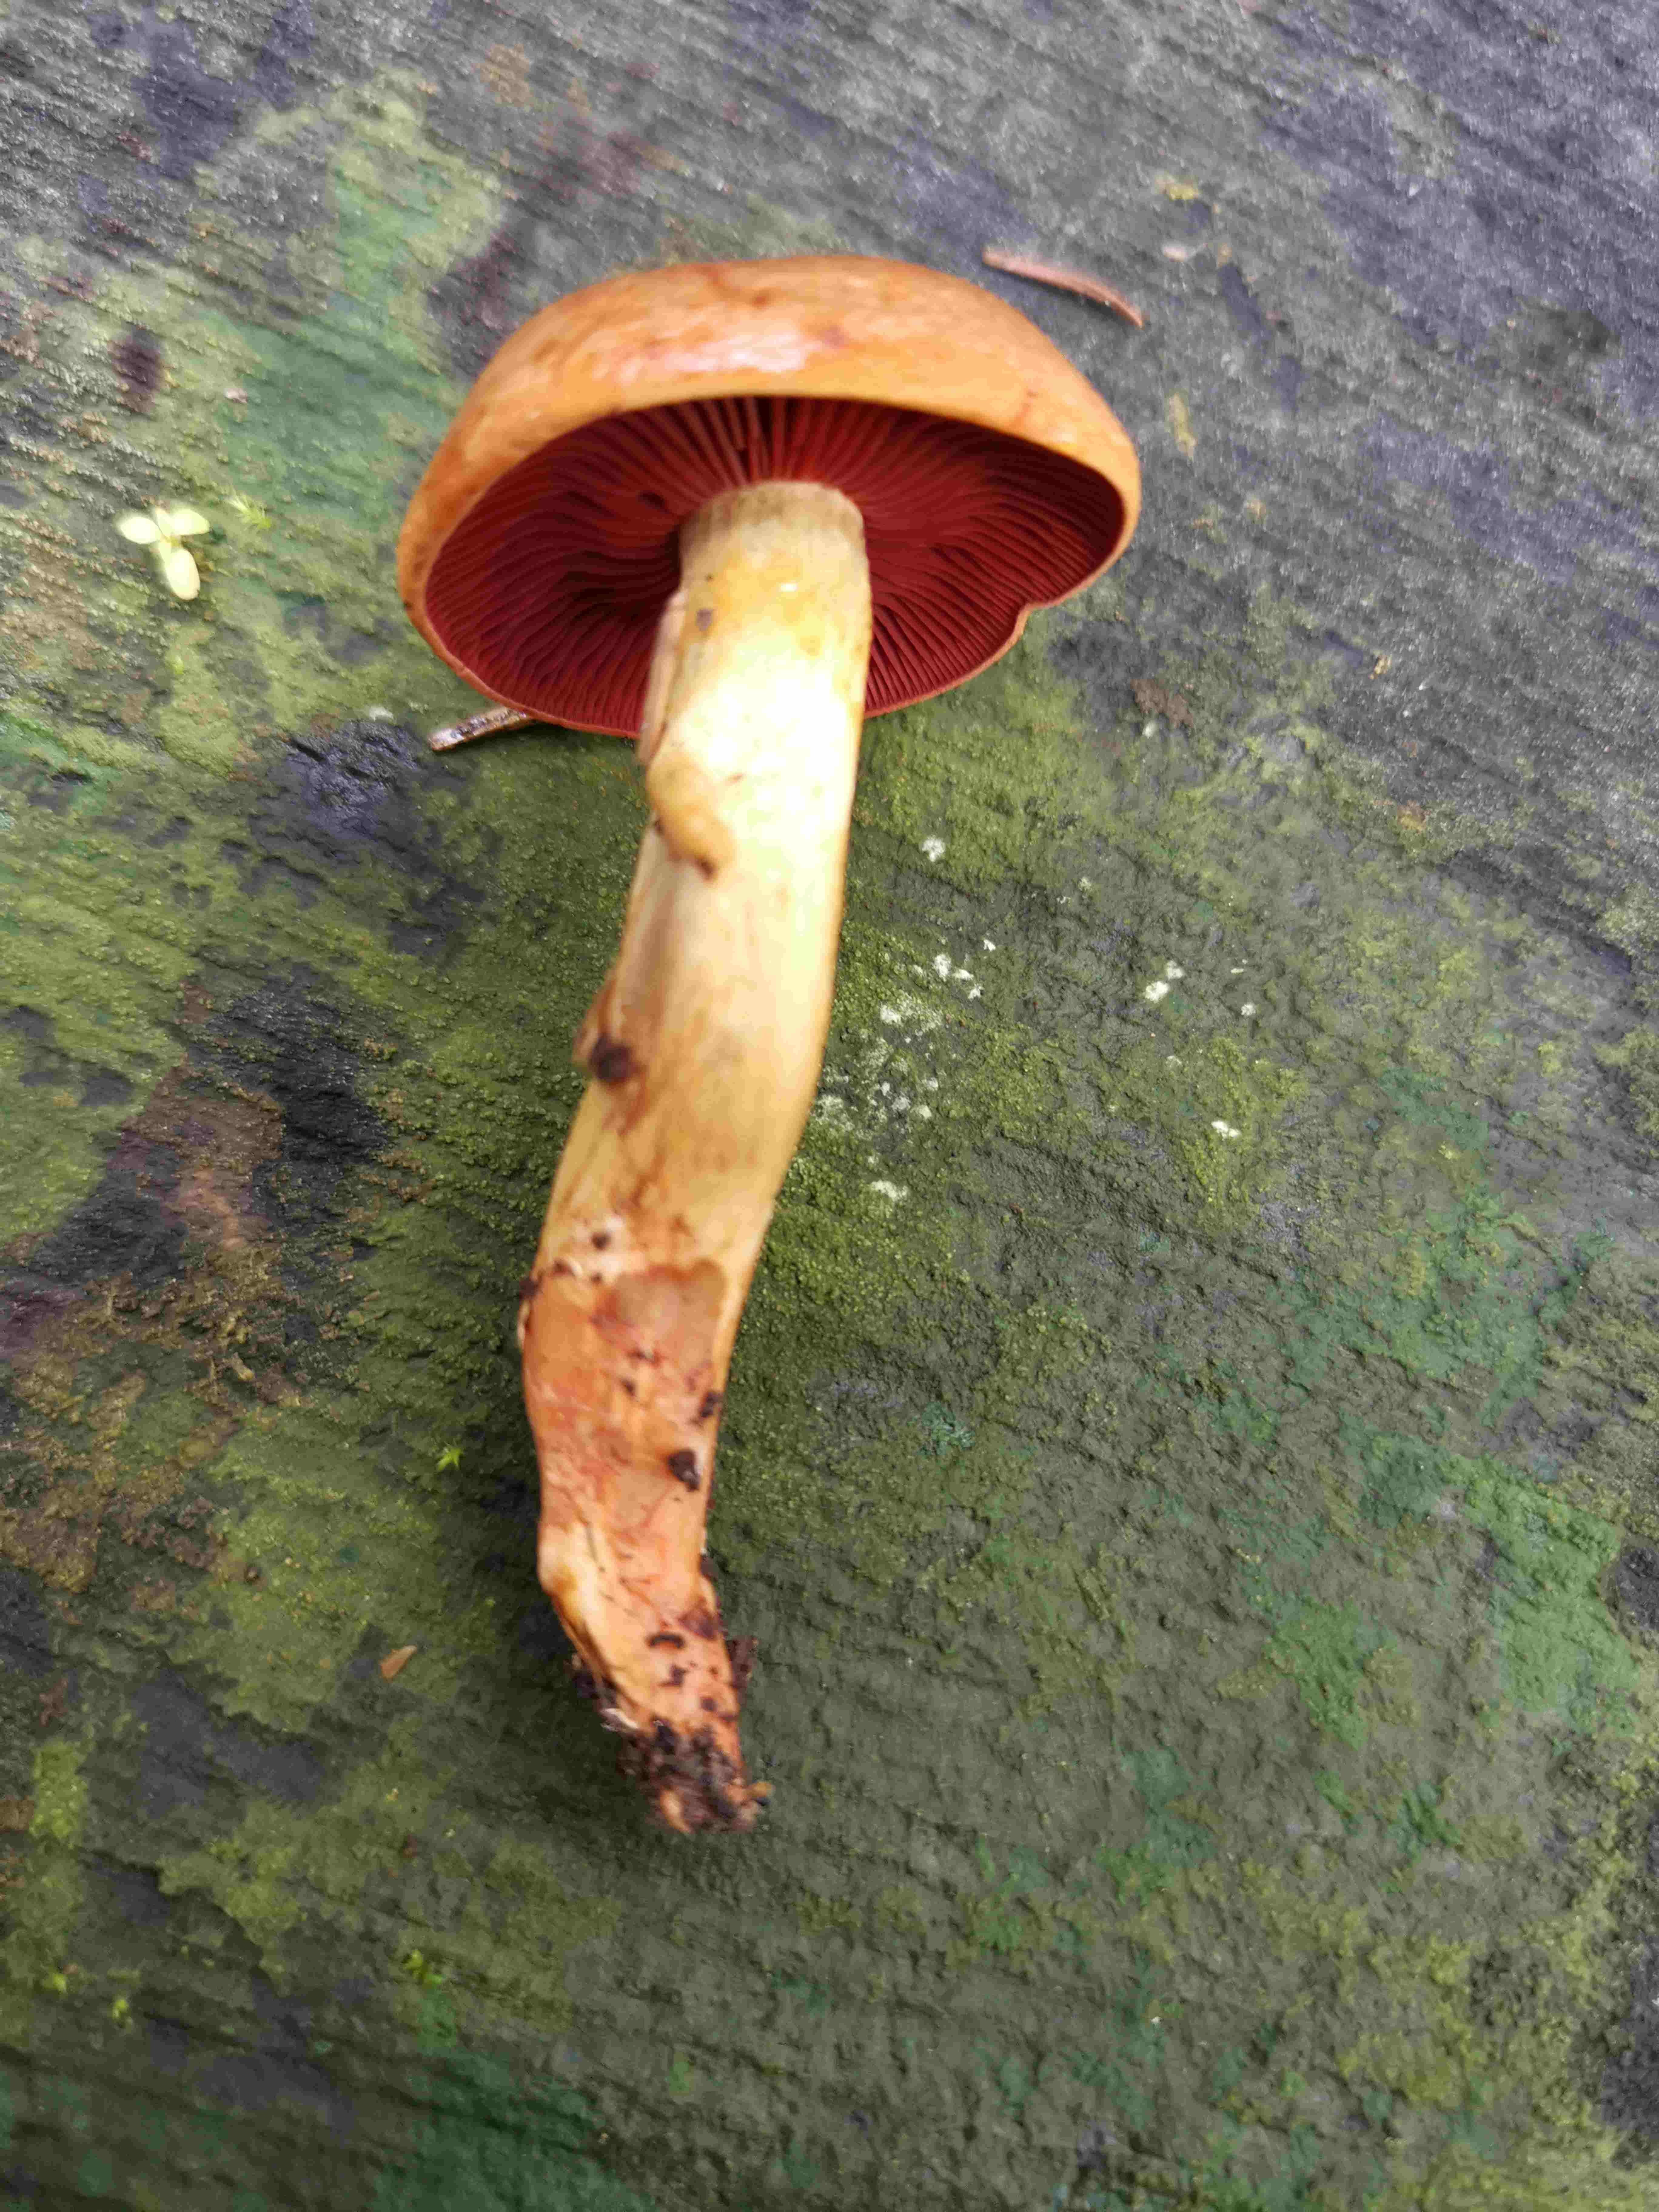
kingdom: Fungi
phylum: Basidiomycota
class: Agaricomycetes
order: Agaricales
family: Cortinariaceae
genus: Cortinarius
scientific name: Cortinarius
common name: cinnoberbladet slørhat
